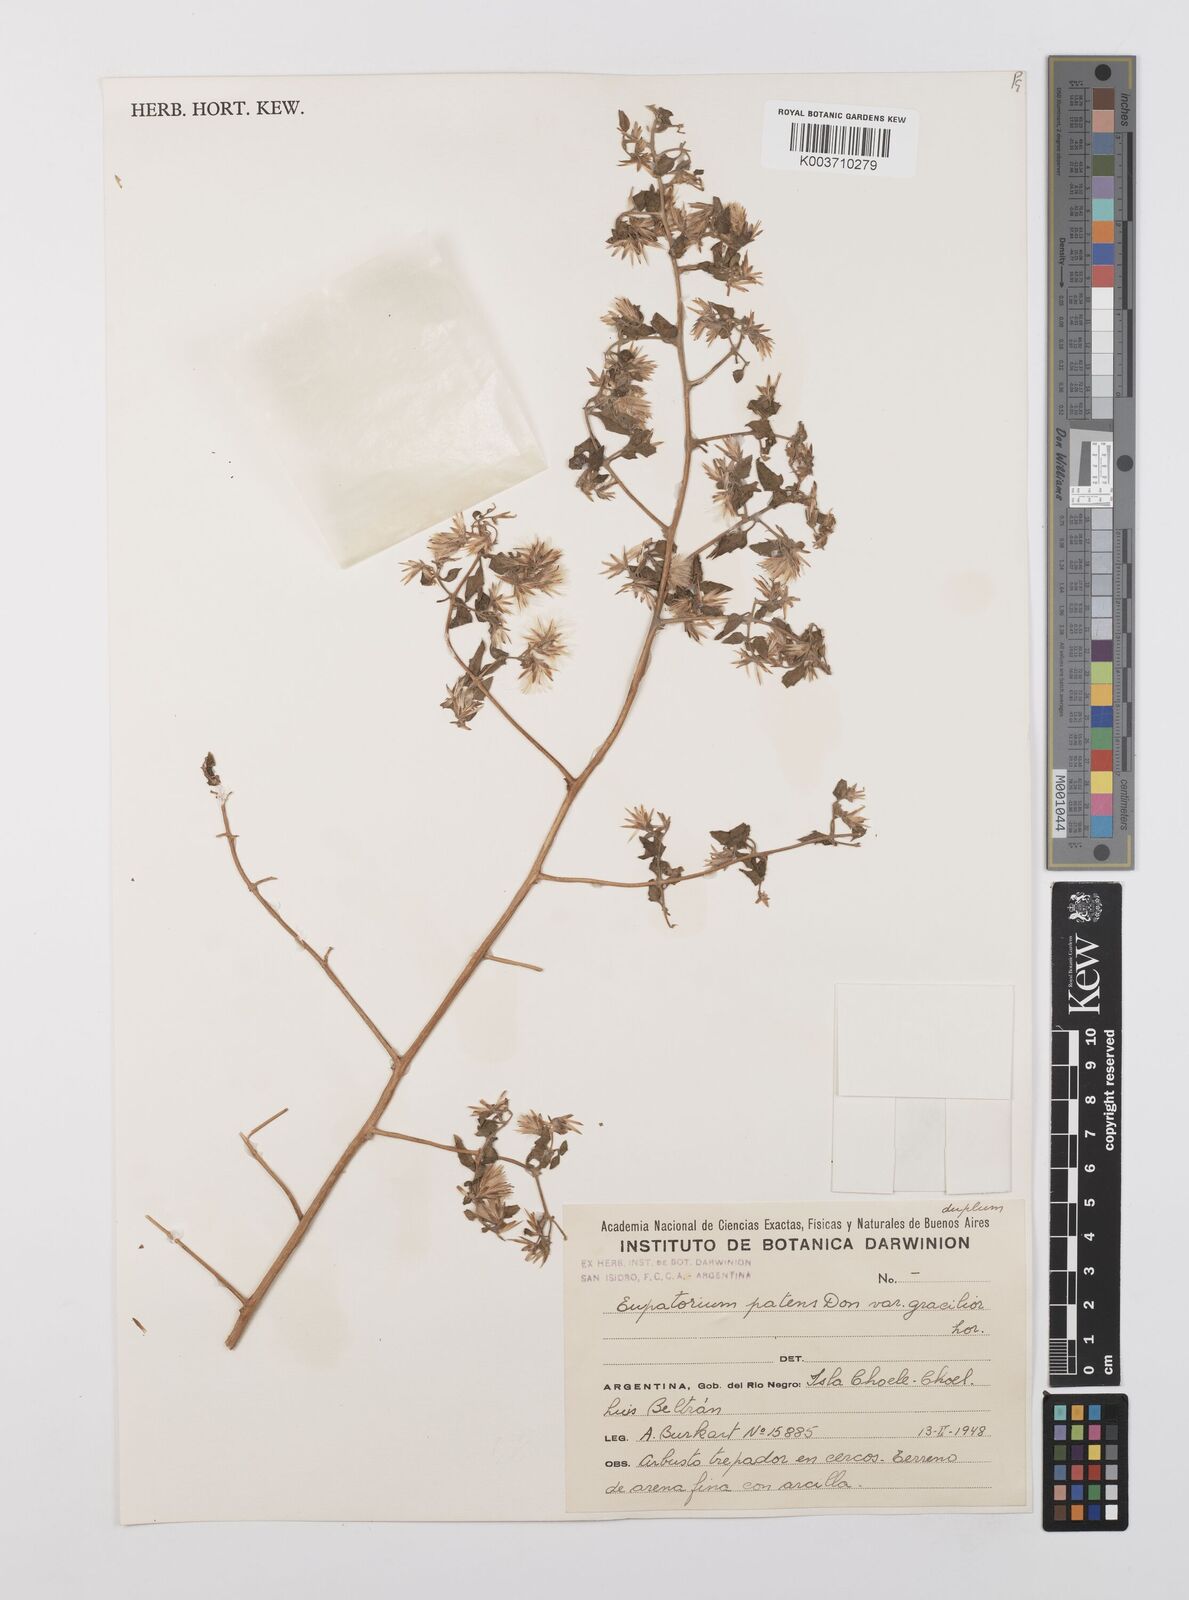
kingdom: Plantae
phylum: Tracheophyta
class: Magnoliopsida
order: Asterales
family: Asteraceae
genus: Austrobrickellia
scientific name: Austrobrickellia patens
